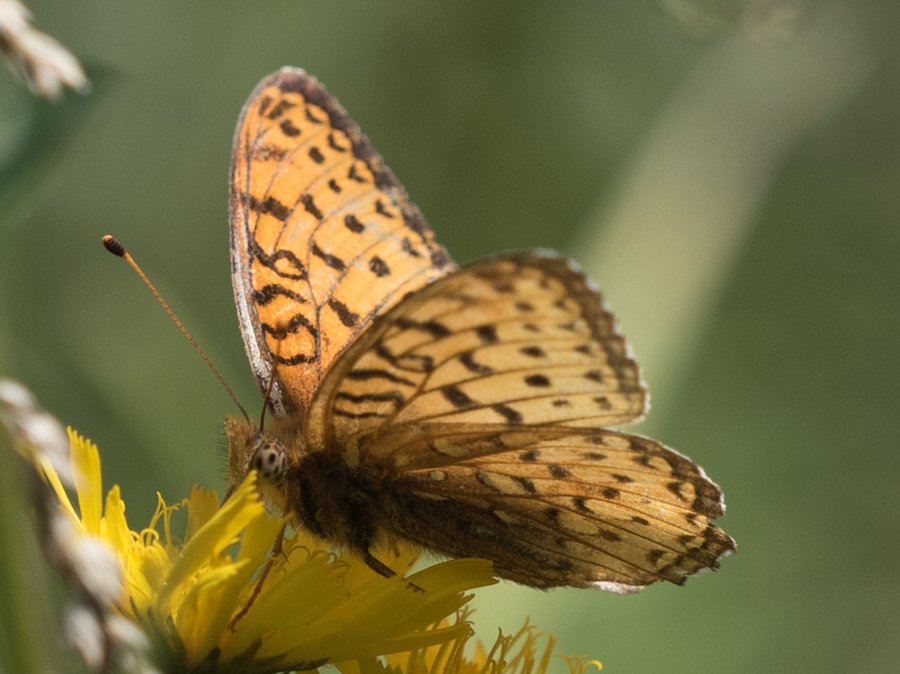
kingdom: Animalia
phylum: Arthropoda
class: Insecta
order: Lepidoptera
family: Nymphalidae
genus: Speyeria
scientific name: Speyeria atlantis
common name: Northwestern Fritillary
